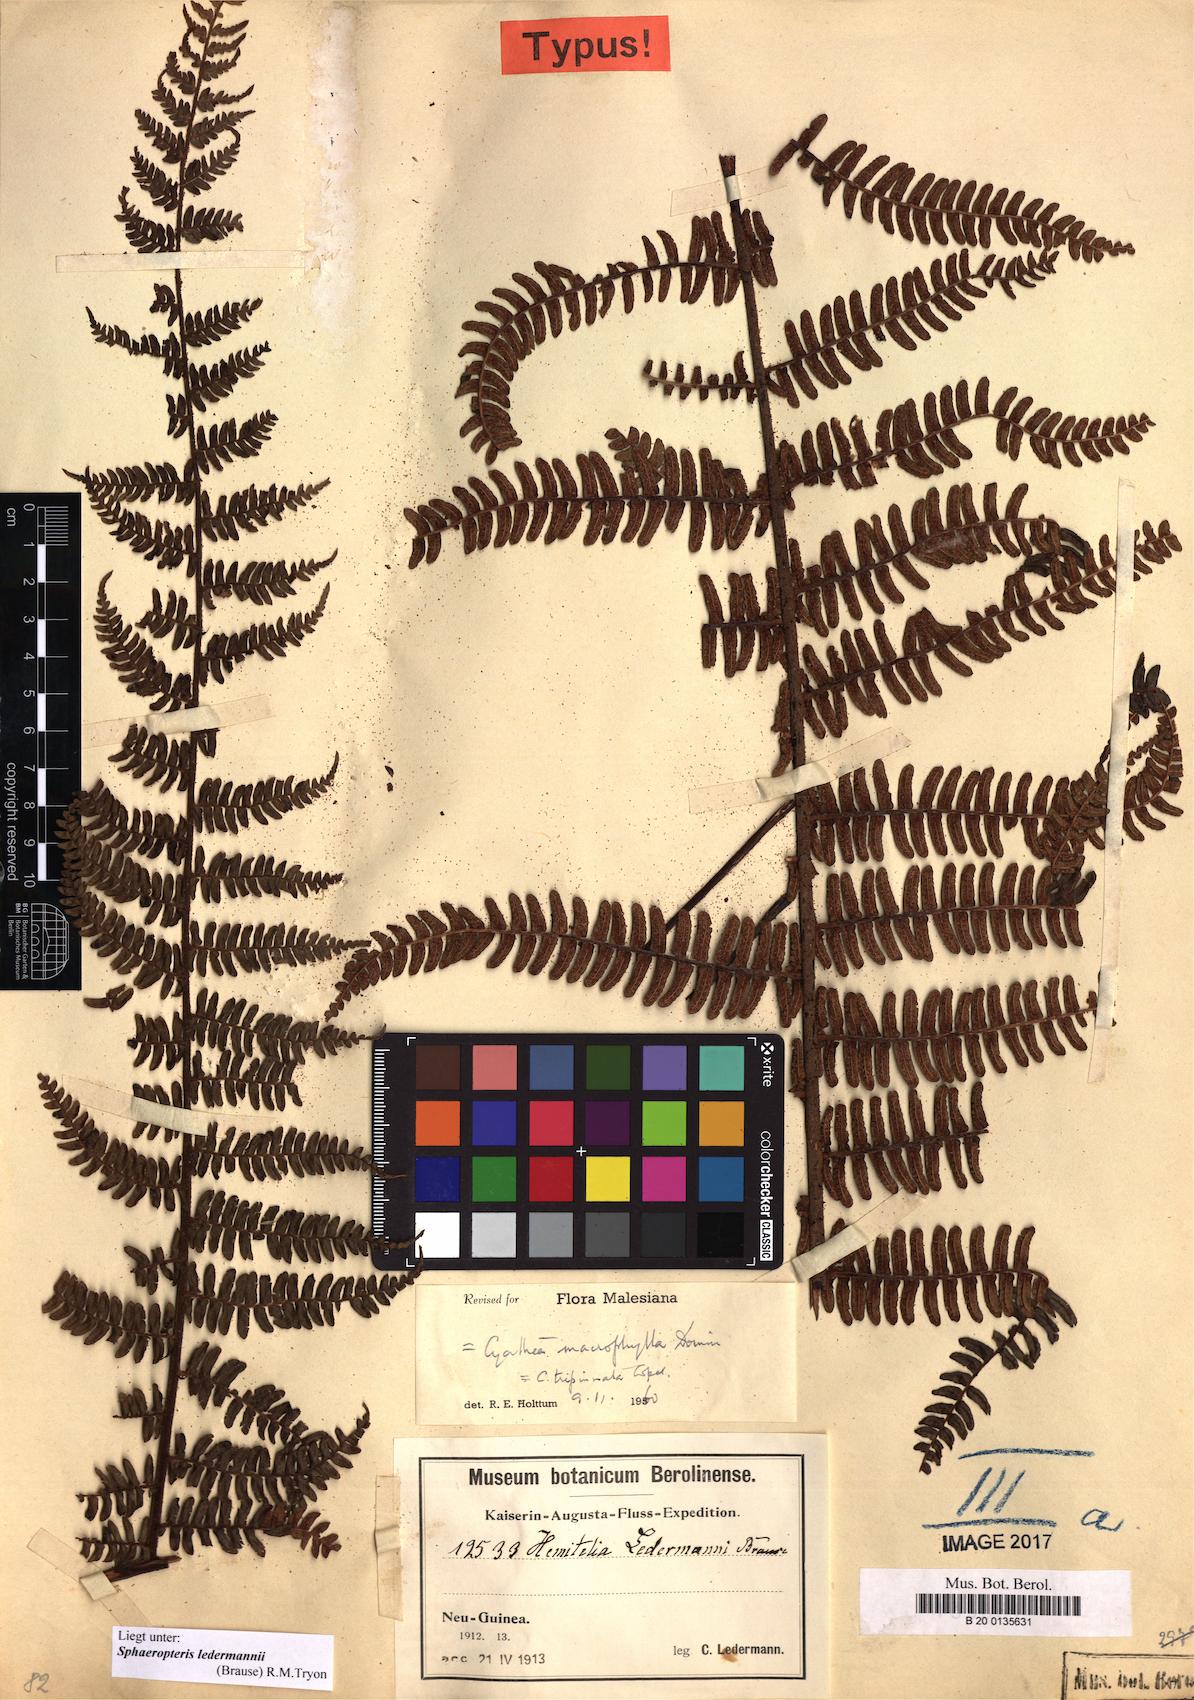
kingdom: Plantae
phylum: Tracheophyta
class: Polypodiopsida
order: Cyatheales
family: Cyatheaceae
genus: Sphaeropteris
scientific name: Sphaeropteris ledermannii
